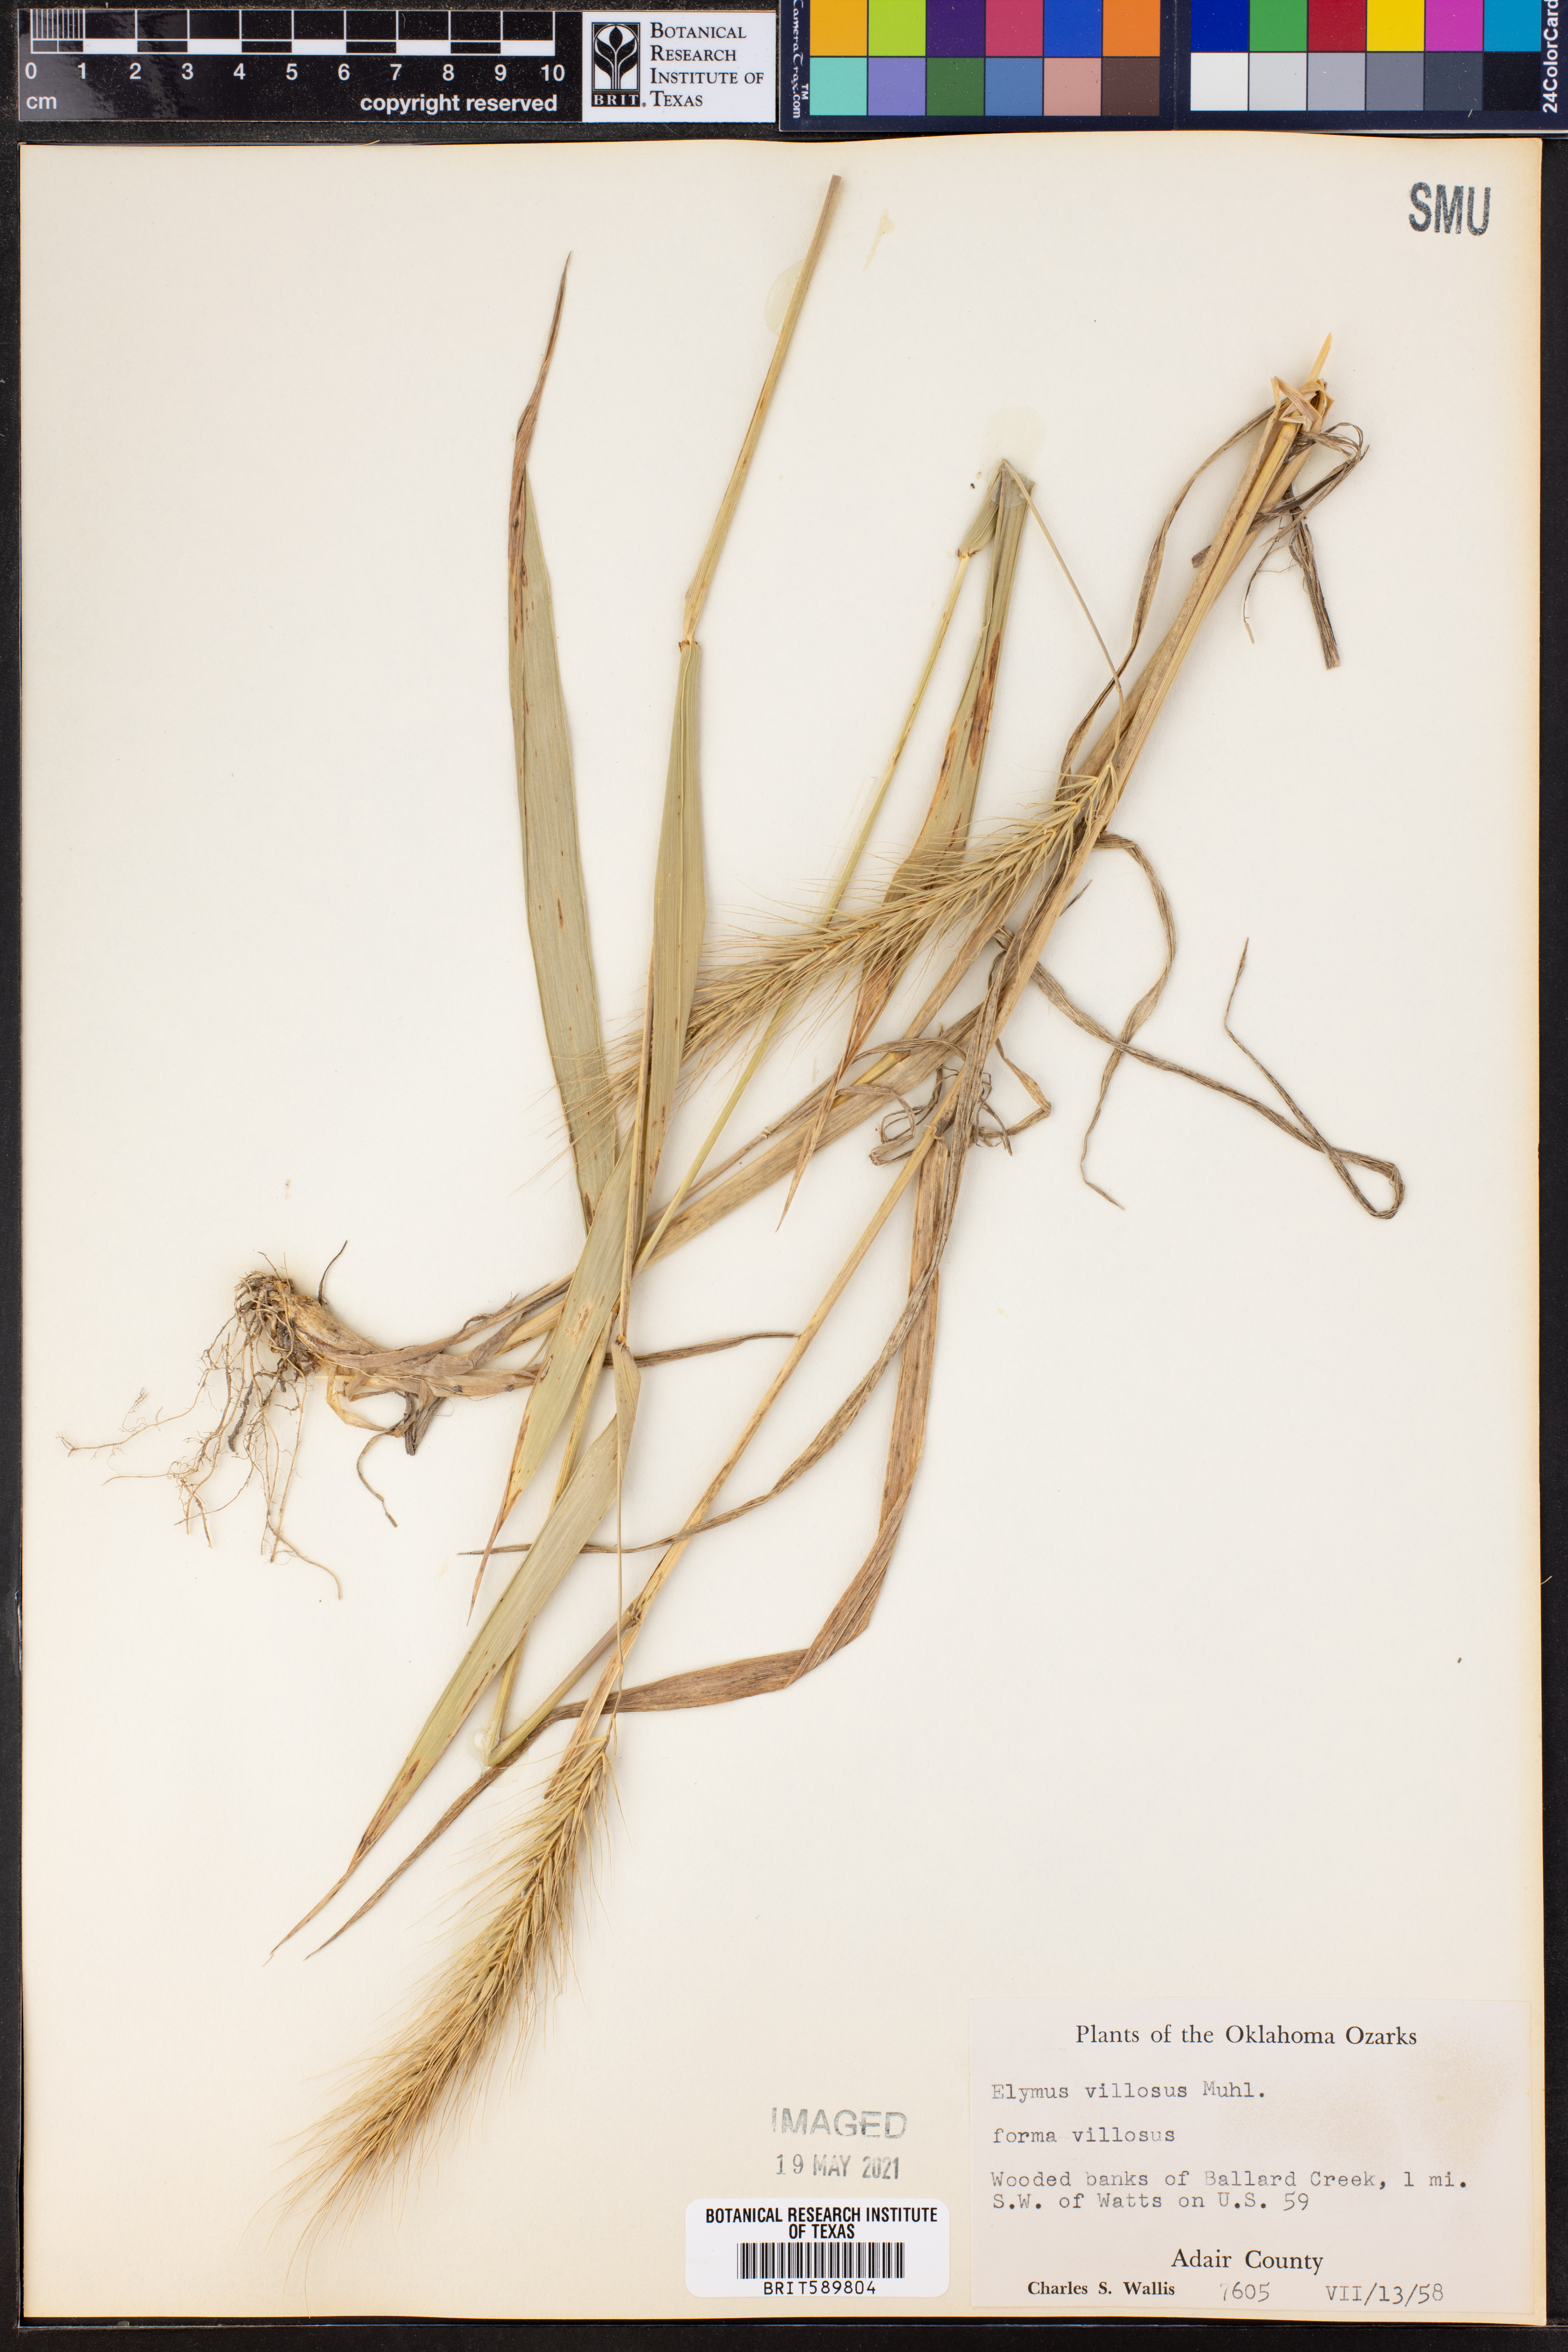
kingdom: Plantae
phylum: Tracheophyta
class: Liliopsida
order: Poales
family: Poaceae
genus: Elymus
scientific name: Elymus villosus
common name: Downy wild rye
